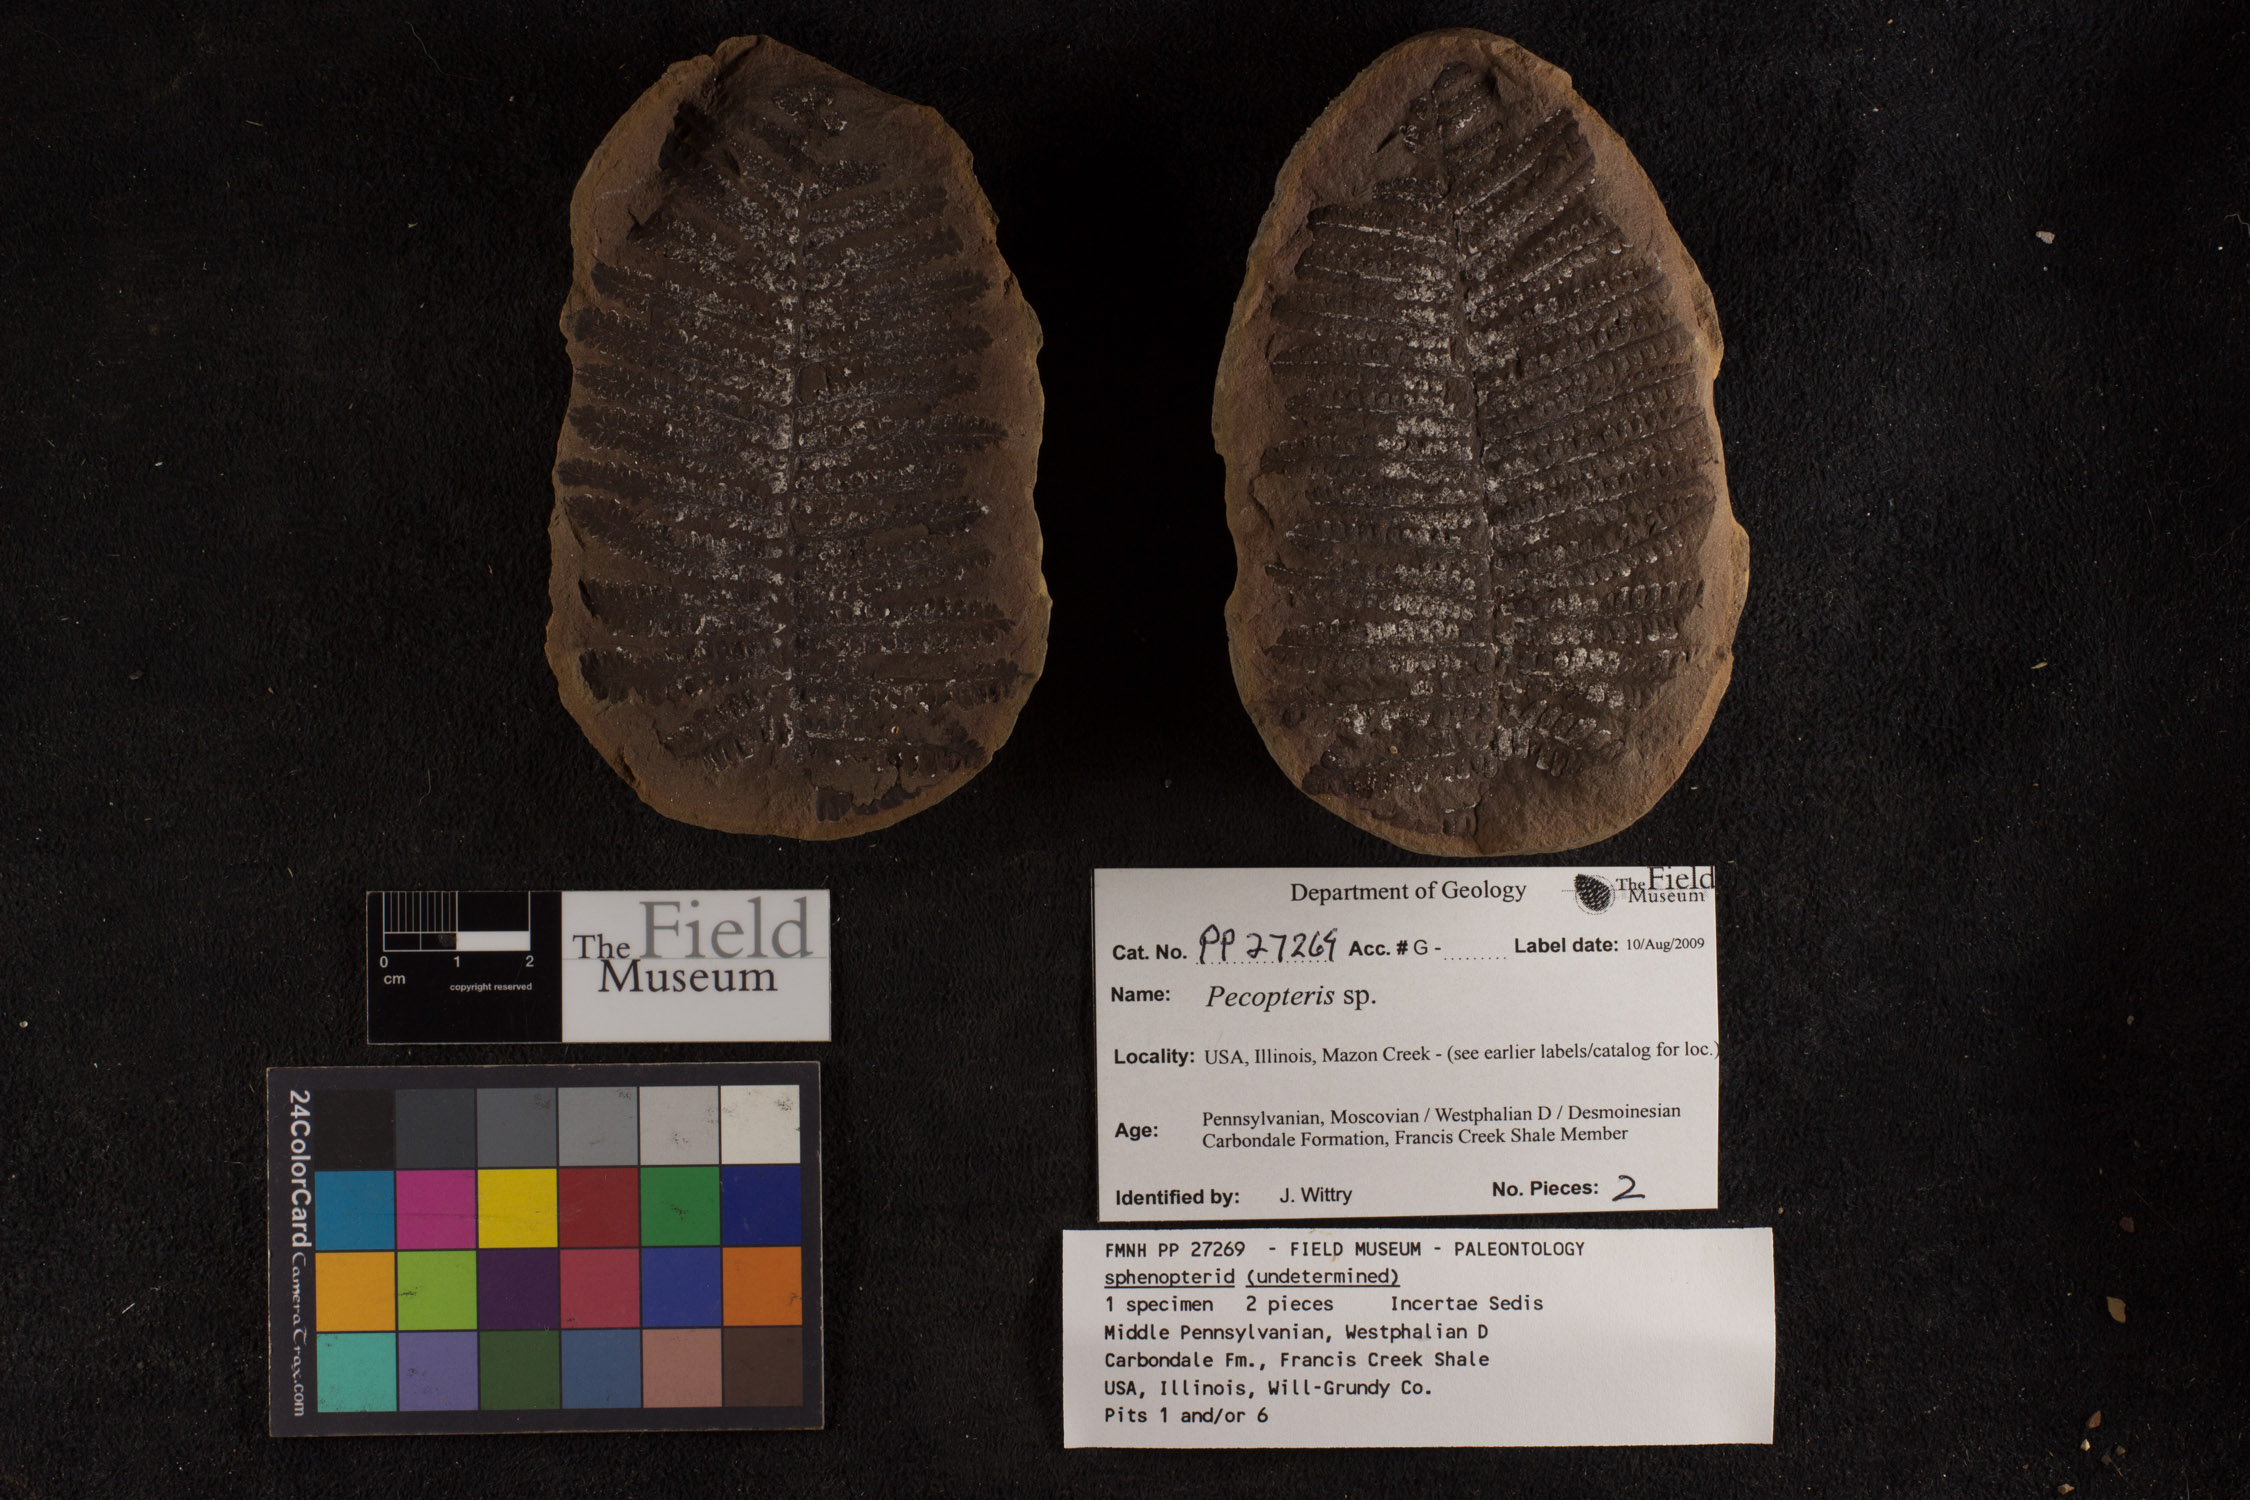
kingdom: Plantae
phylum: Tracheophyta
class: Polypodiopsida
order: Marattiales
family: Asterothecaceae
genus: Pecopteris
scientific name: Pecopteris
